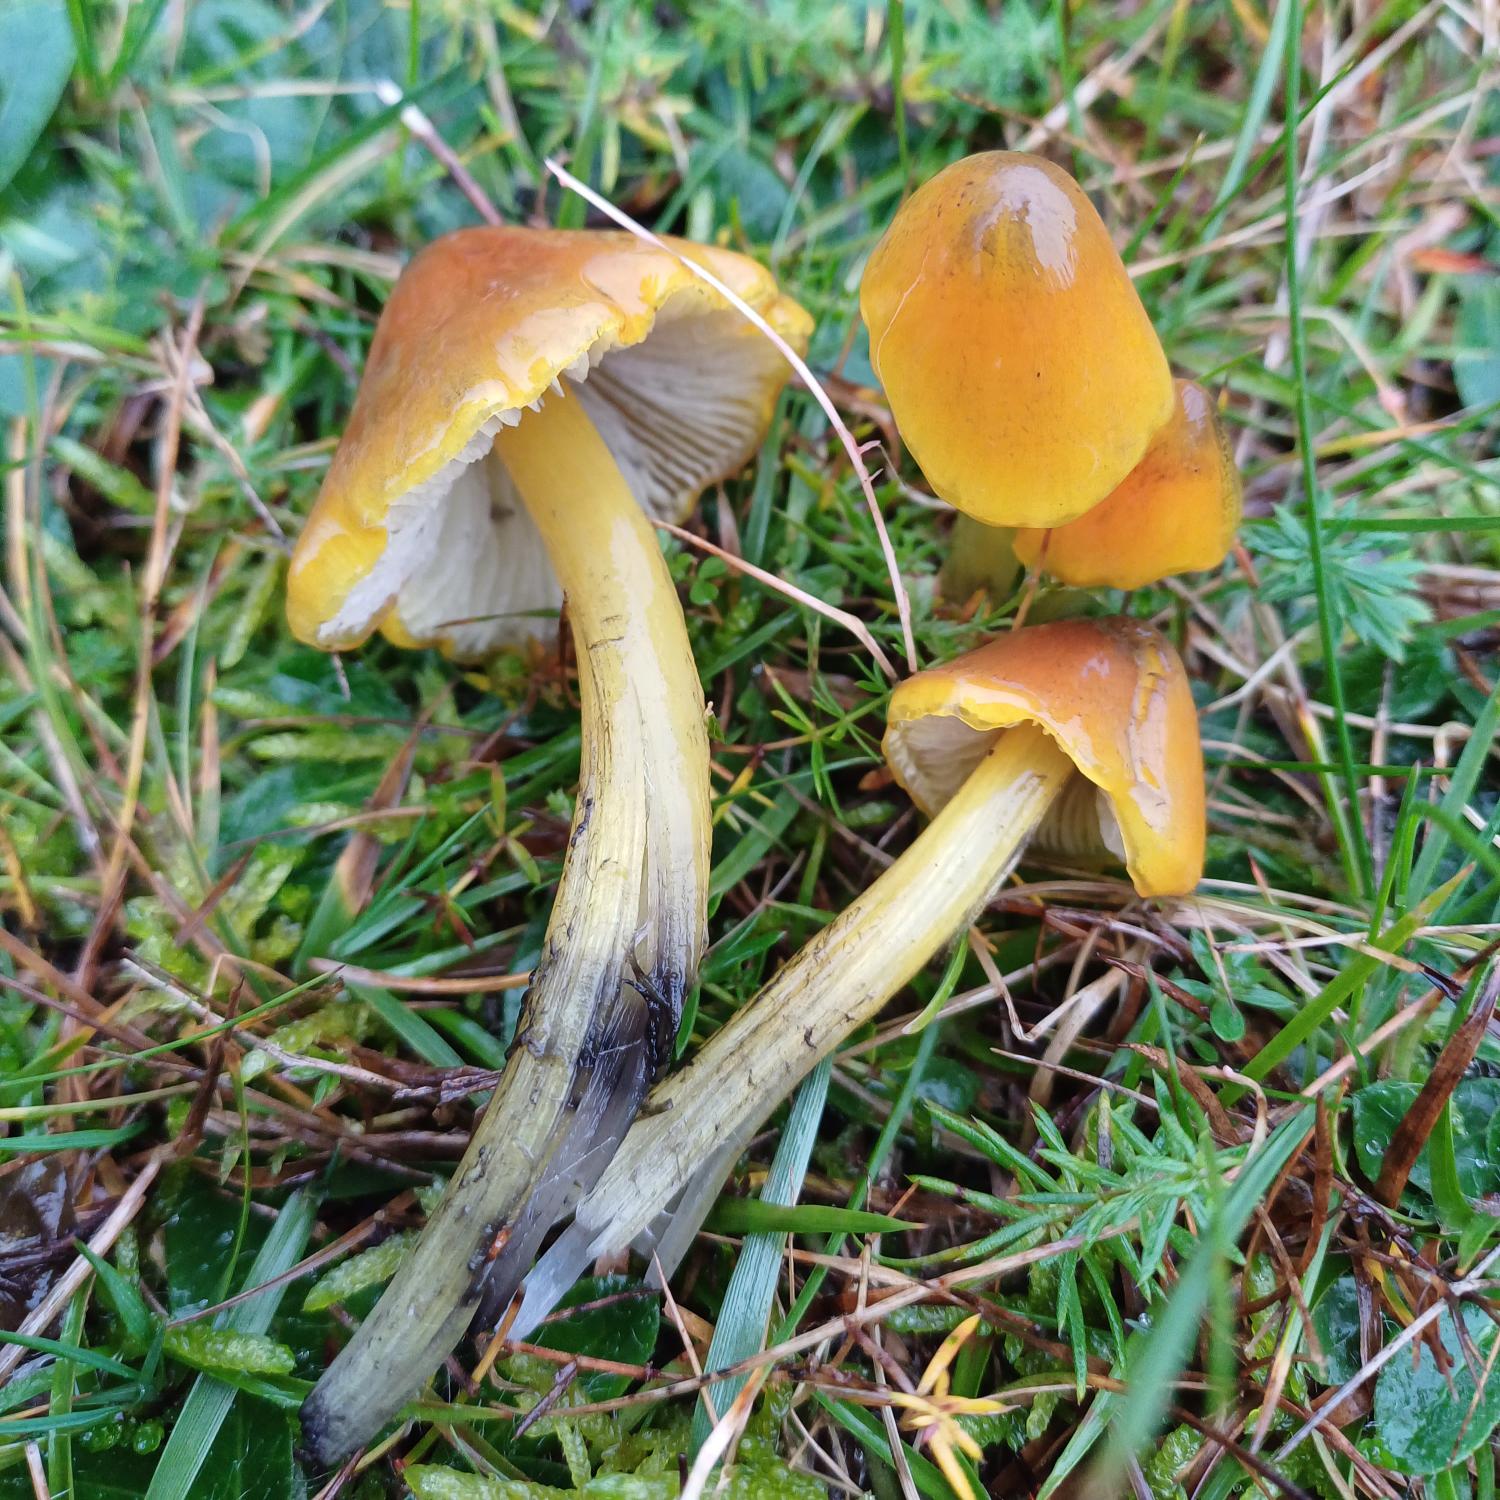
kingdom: Fungi
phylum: Basidiomycota
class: Agaricomycetes
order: Agaricales
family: Hygrophoraceae
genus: Hygrocybe
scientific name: Hygrocybe conica
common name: Kegle-vokshat
